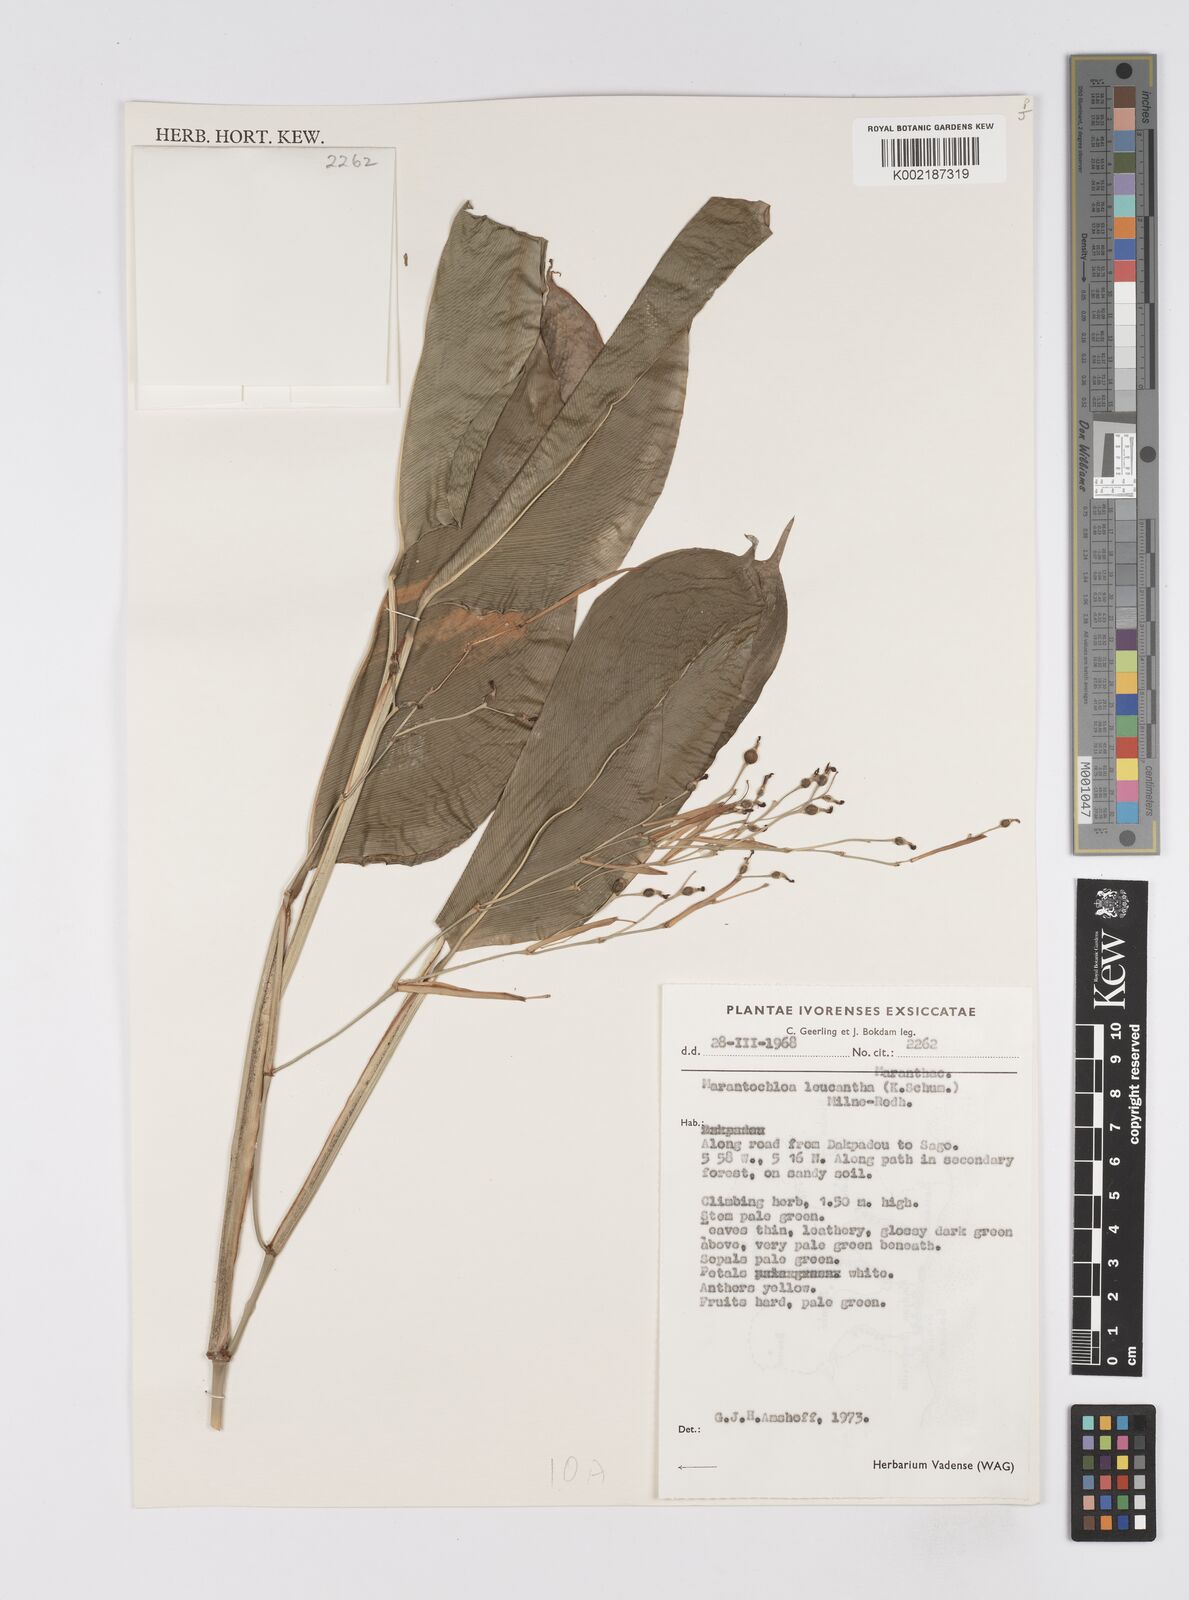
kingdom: Plantae
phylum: Tracheophyta
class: Liliopsida
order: Zingiberales
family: Marantaceae
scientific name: Marantaceae
